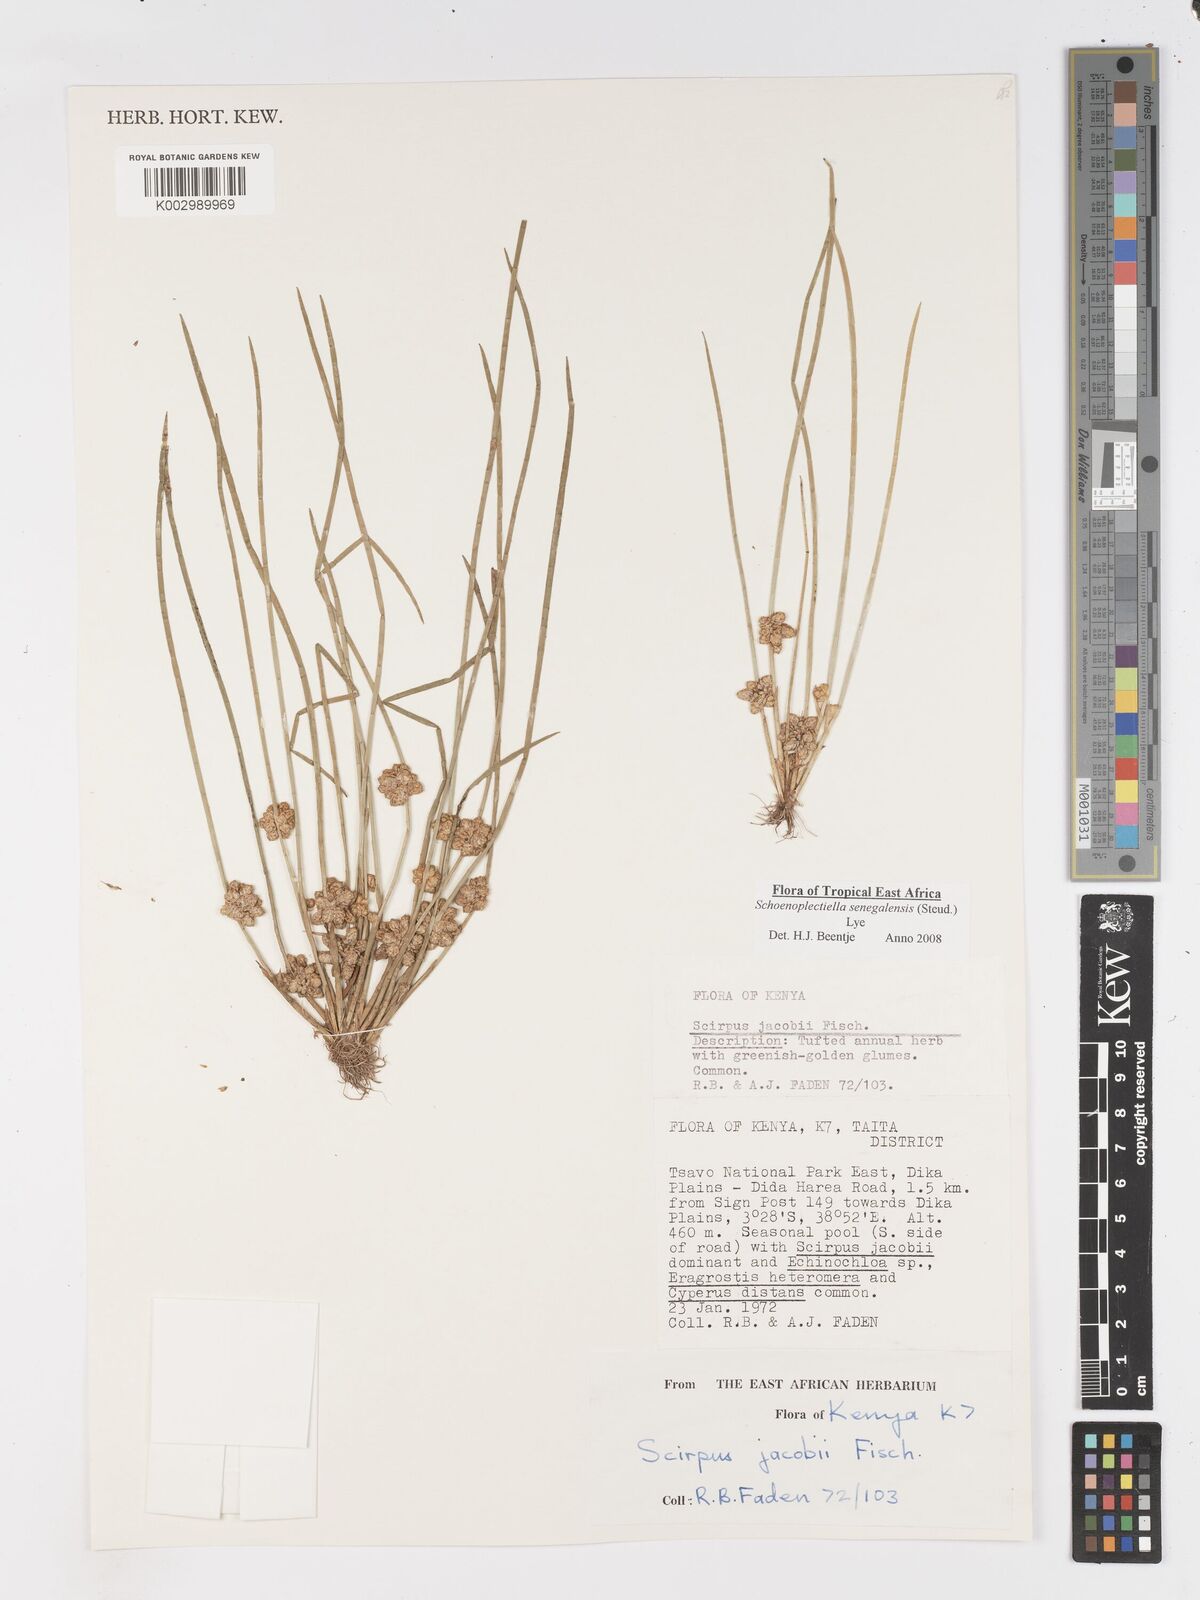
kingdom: Plantae
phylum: Tracheophyta
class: Liliopsida
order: Poales
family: Cyperaceae
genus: Schoenoplectiella
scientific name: Schoenoplectiella senegalensis
